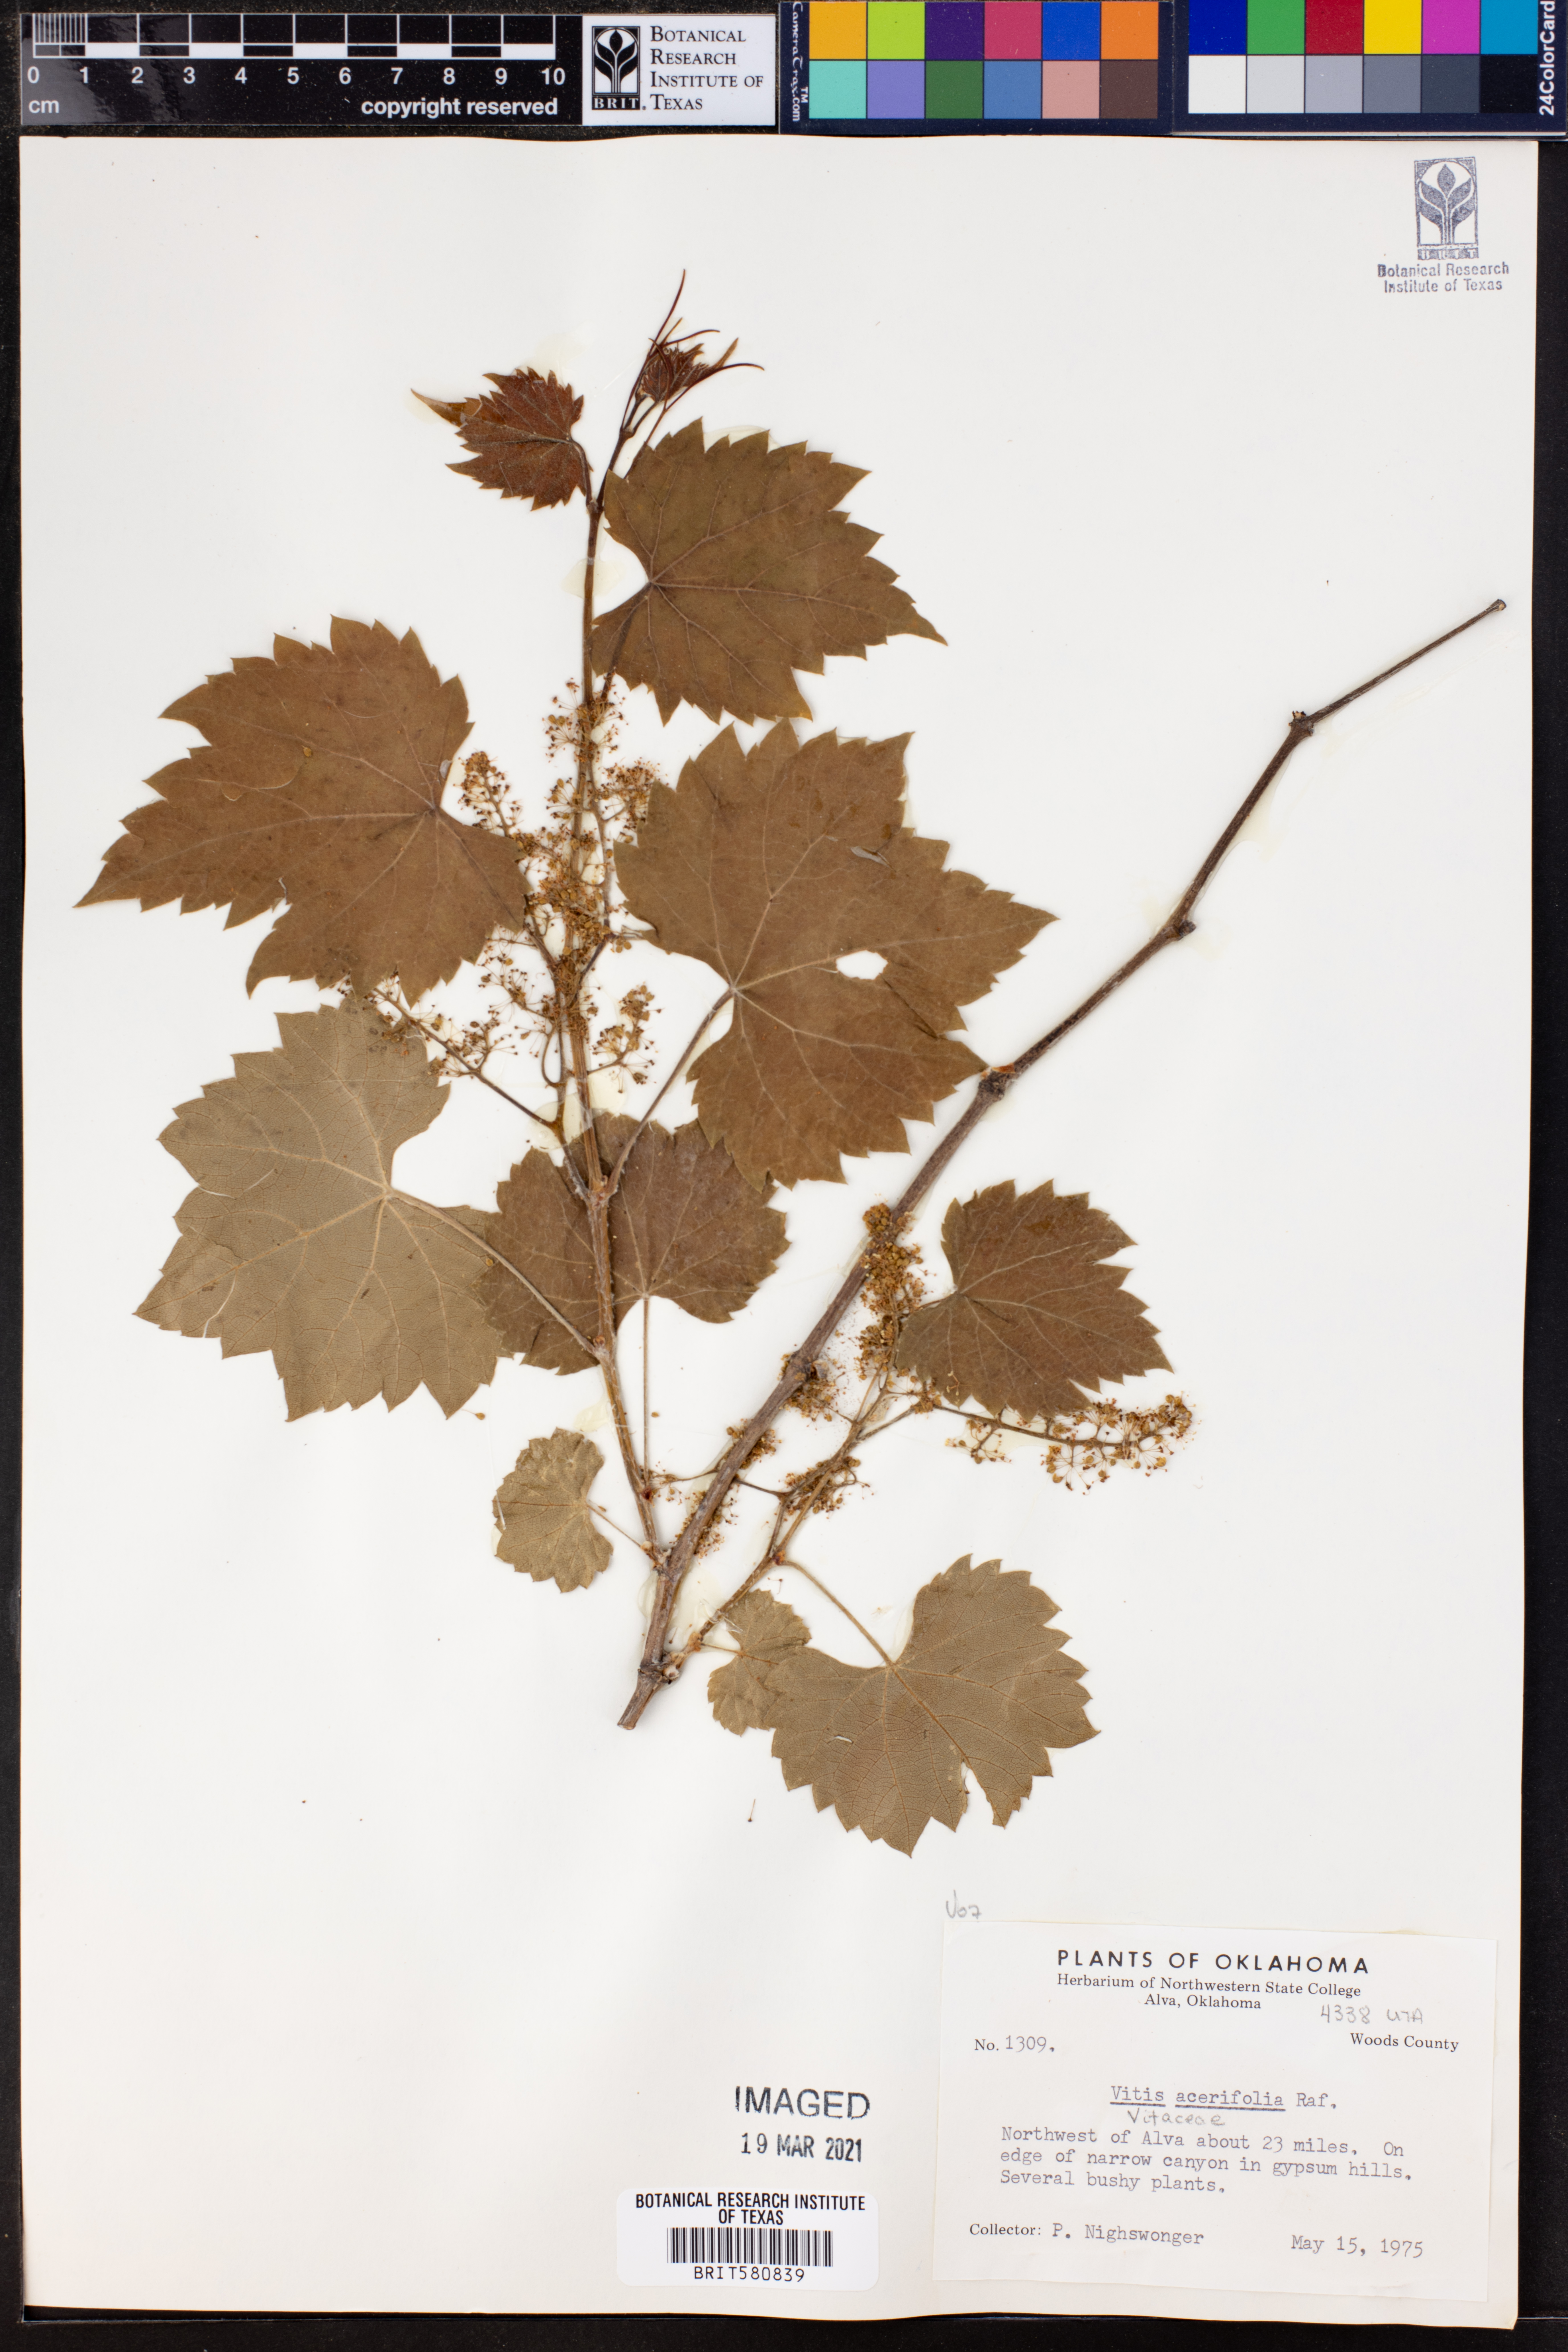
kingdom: Plantae
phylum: Tracheophyta
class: Magnoliopsida
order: Vitales
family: Vitaceae
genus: Vitis
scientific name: Vitis acerifolia
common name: Bush grape
